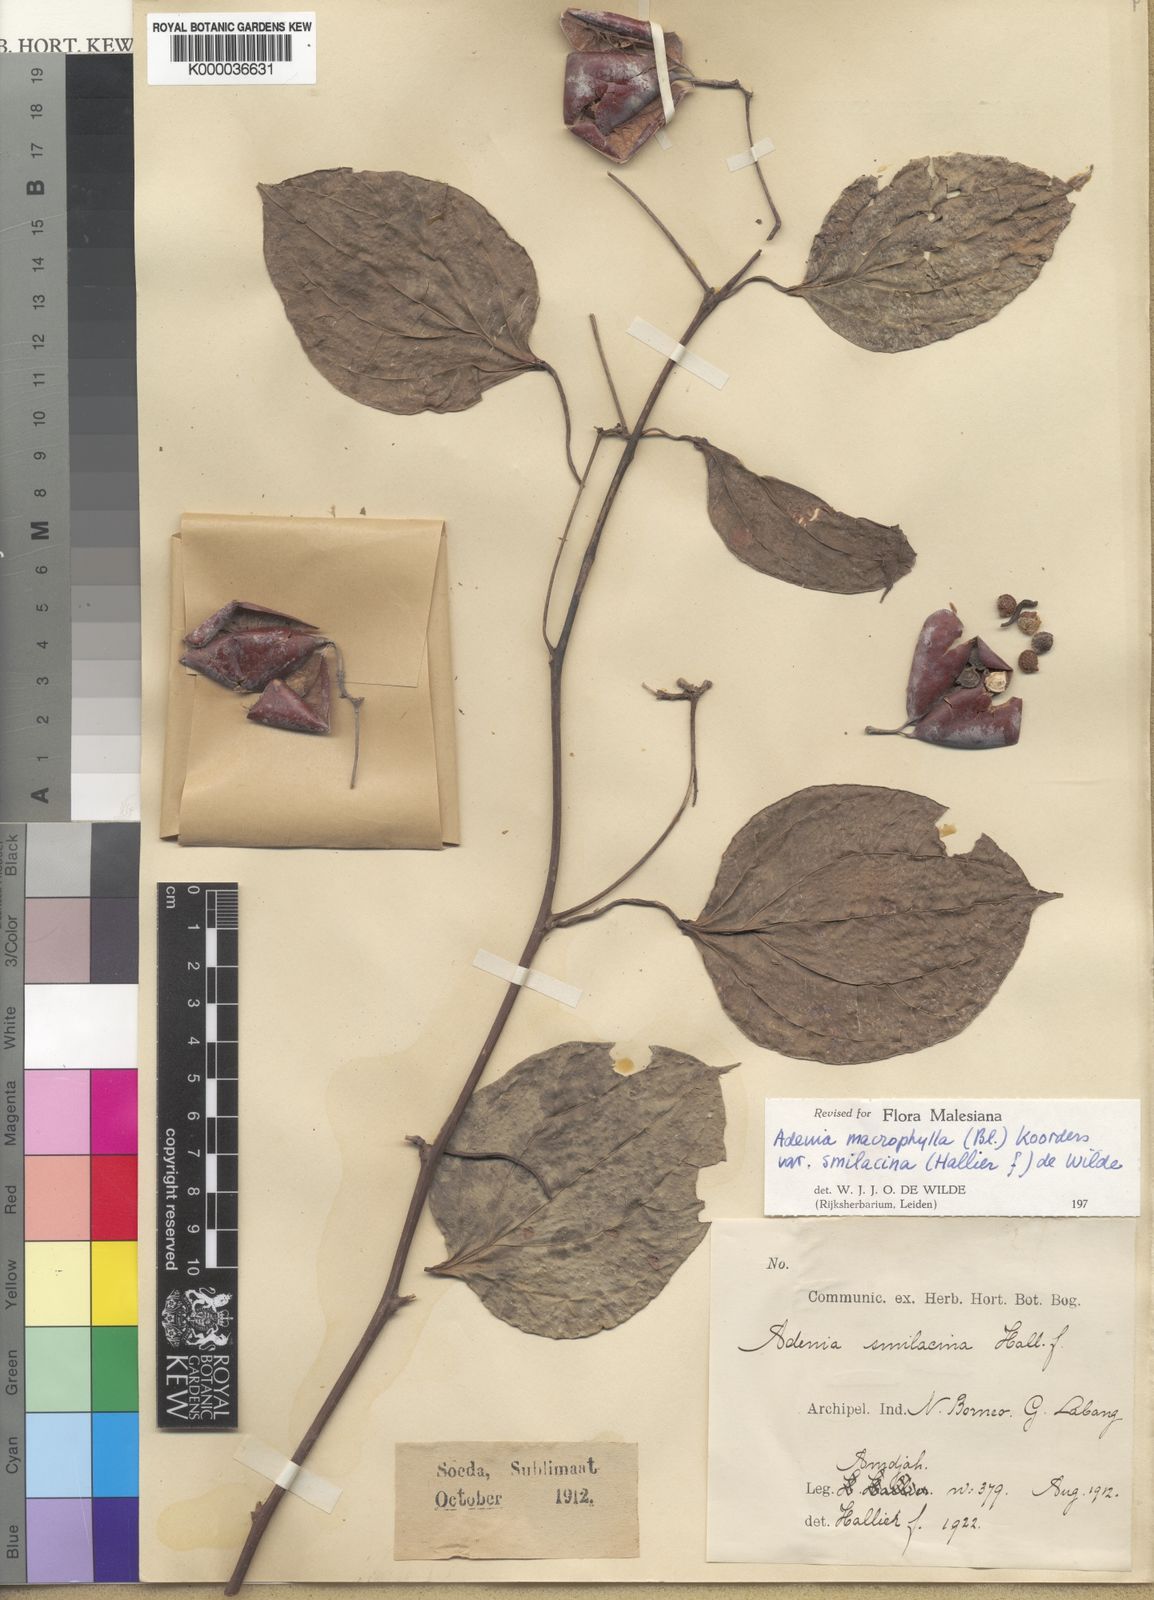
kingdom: Plantae
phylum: Tracheophyta
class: Magnoliopsida
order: Malpighiales
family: Passifloraceae
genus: Adenia
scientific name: Adenia macrophylla
